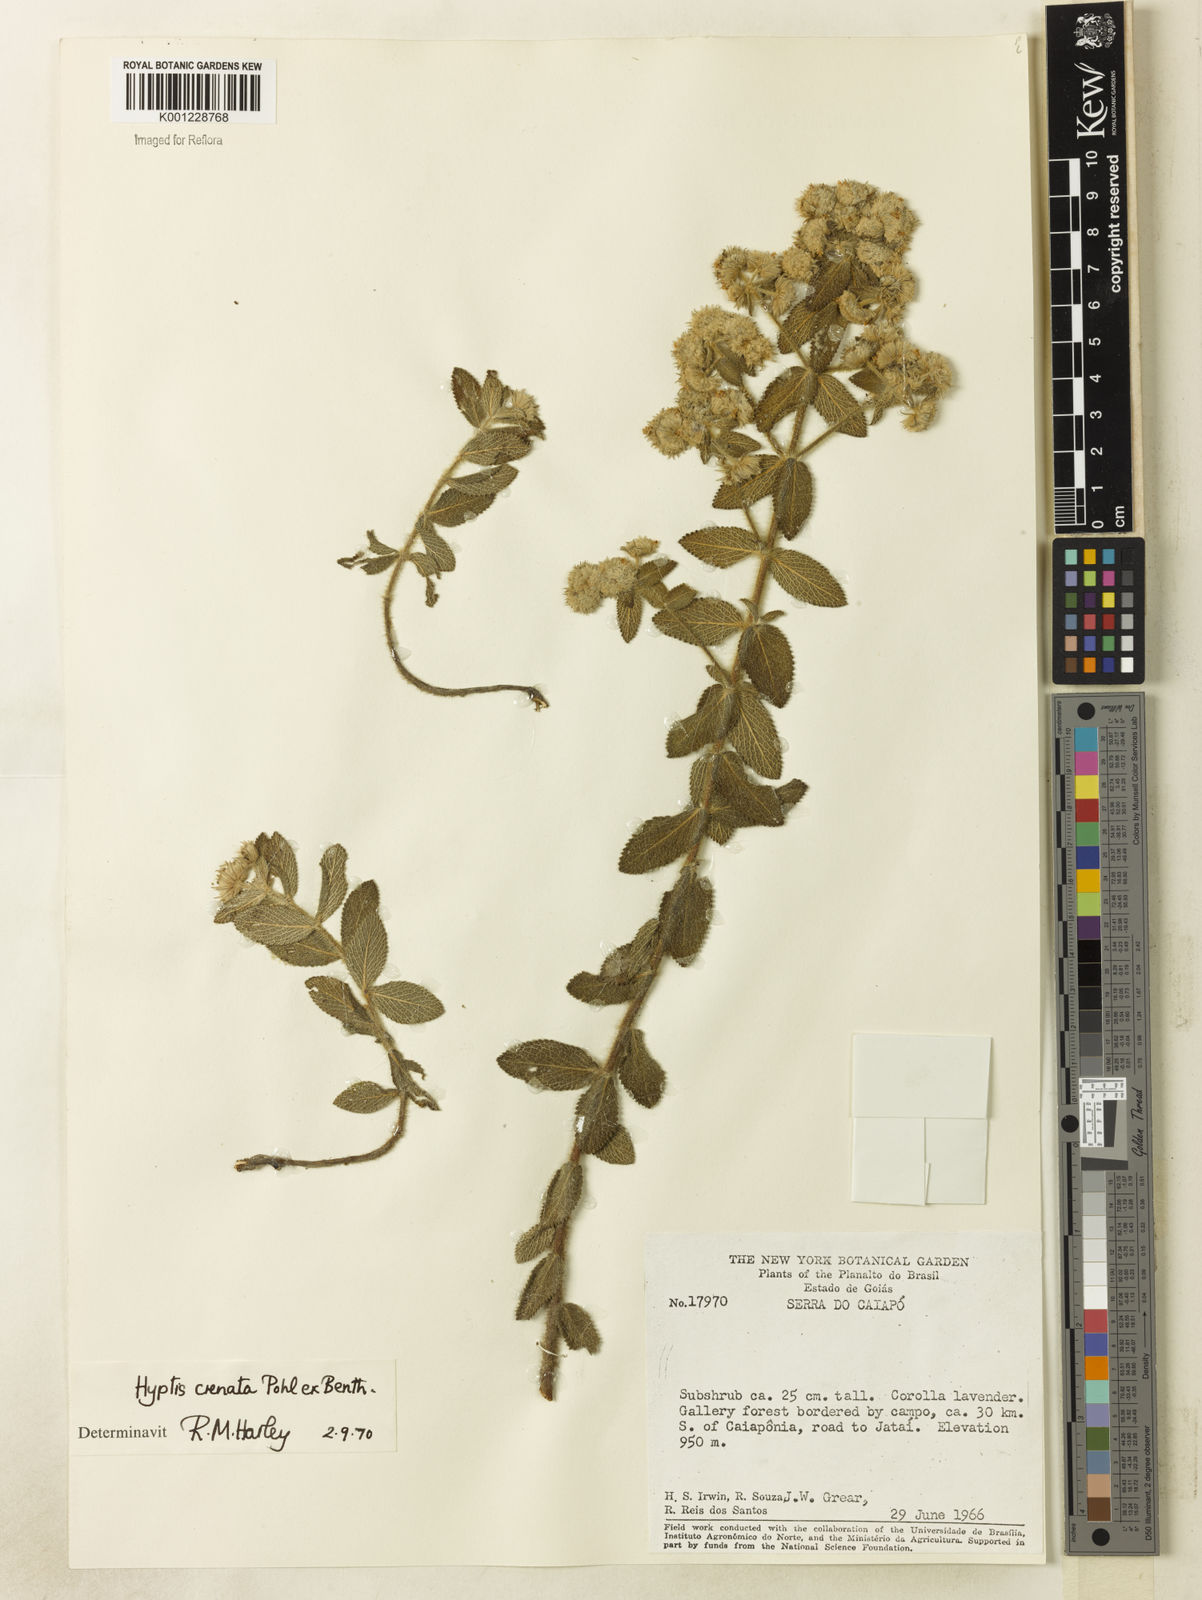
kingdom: Plantae
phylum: Tracheophyta
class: Magnoliopsida
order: Lamiales
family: Lamiaceae
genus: Hyptis
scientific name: Hyptis crenata
